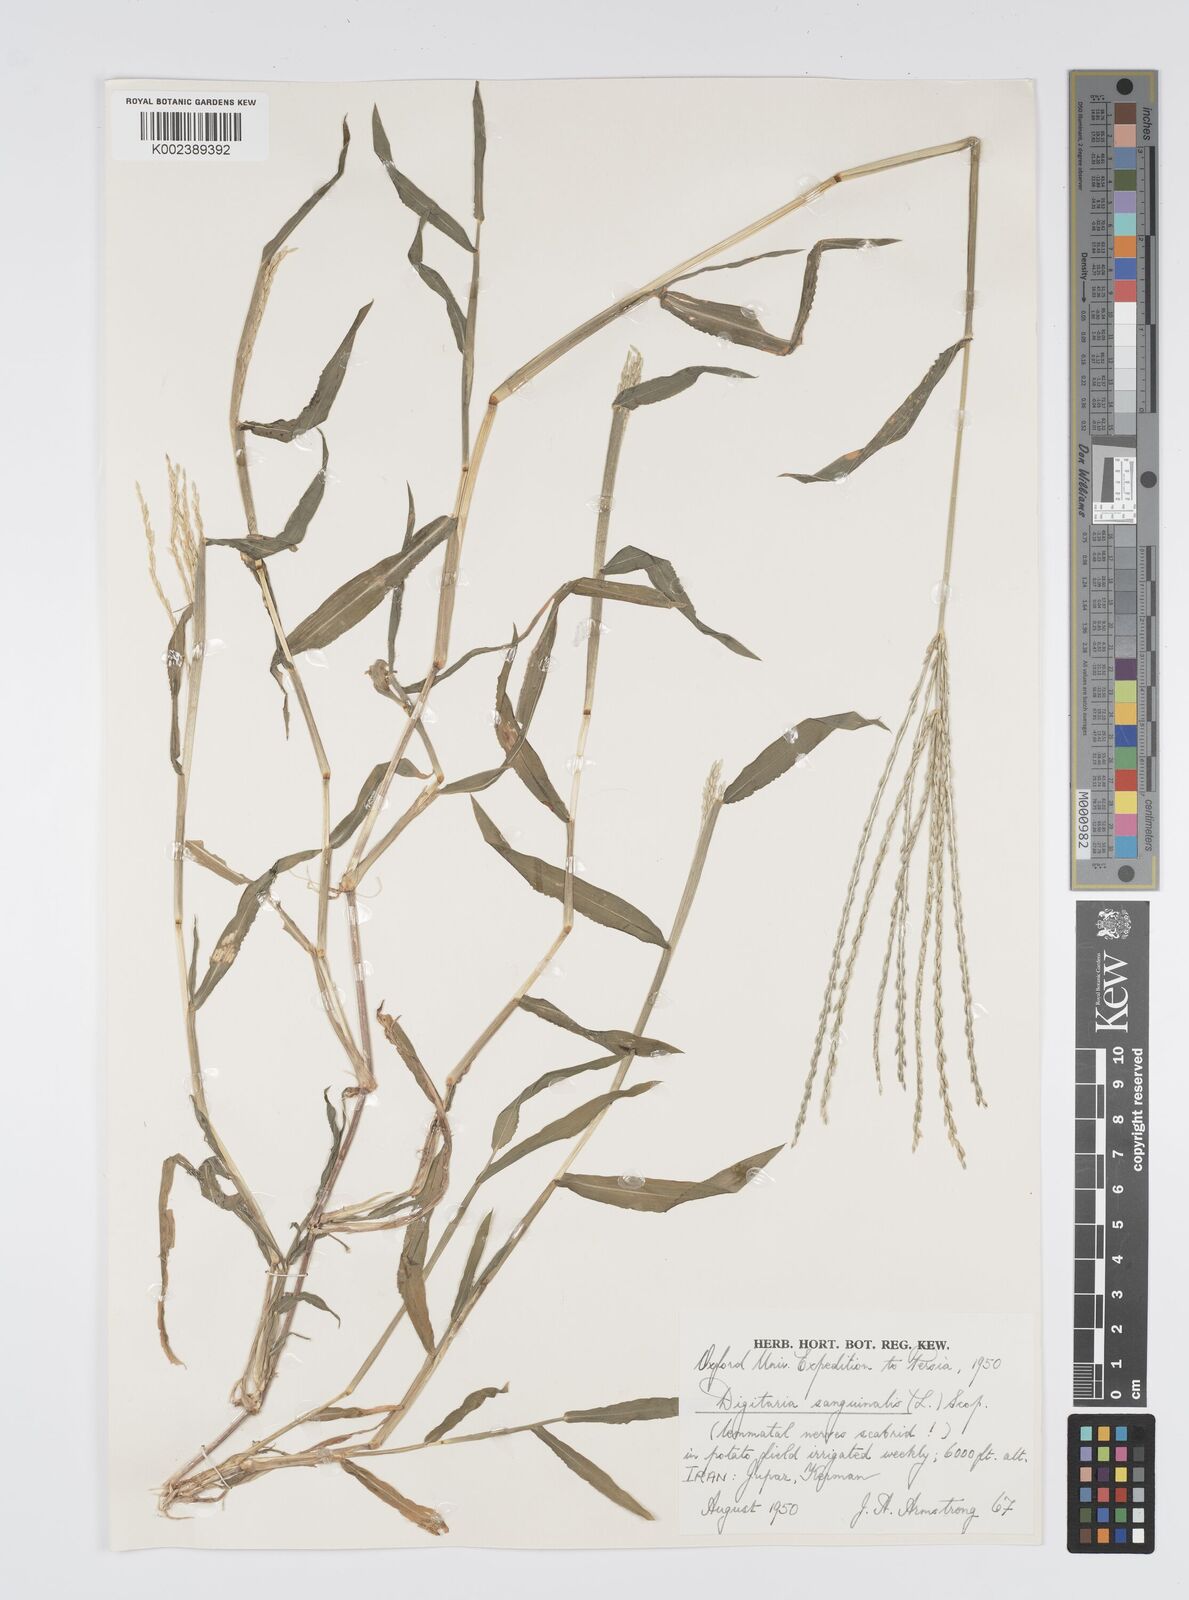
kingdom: Plantae
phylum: Tracheophyta
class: Liliopsida
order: Poales
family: Poaceae
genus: Digitaria
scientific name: Digitaria sanguinalis
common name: Hairy crabgrass
